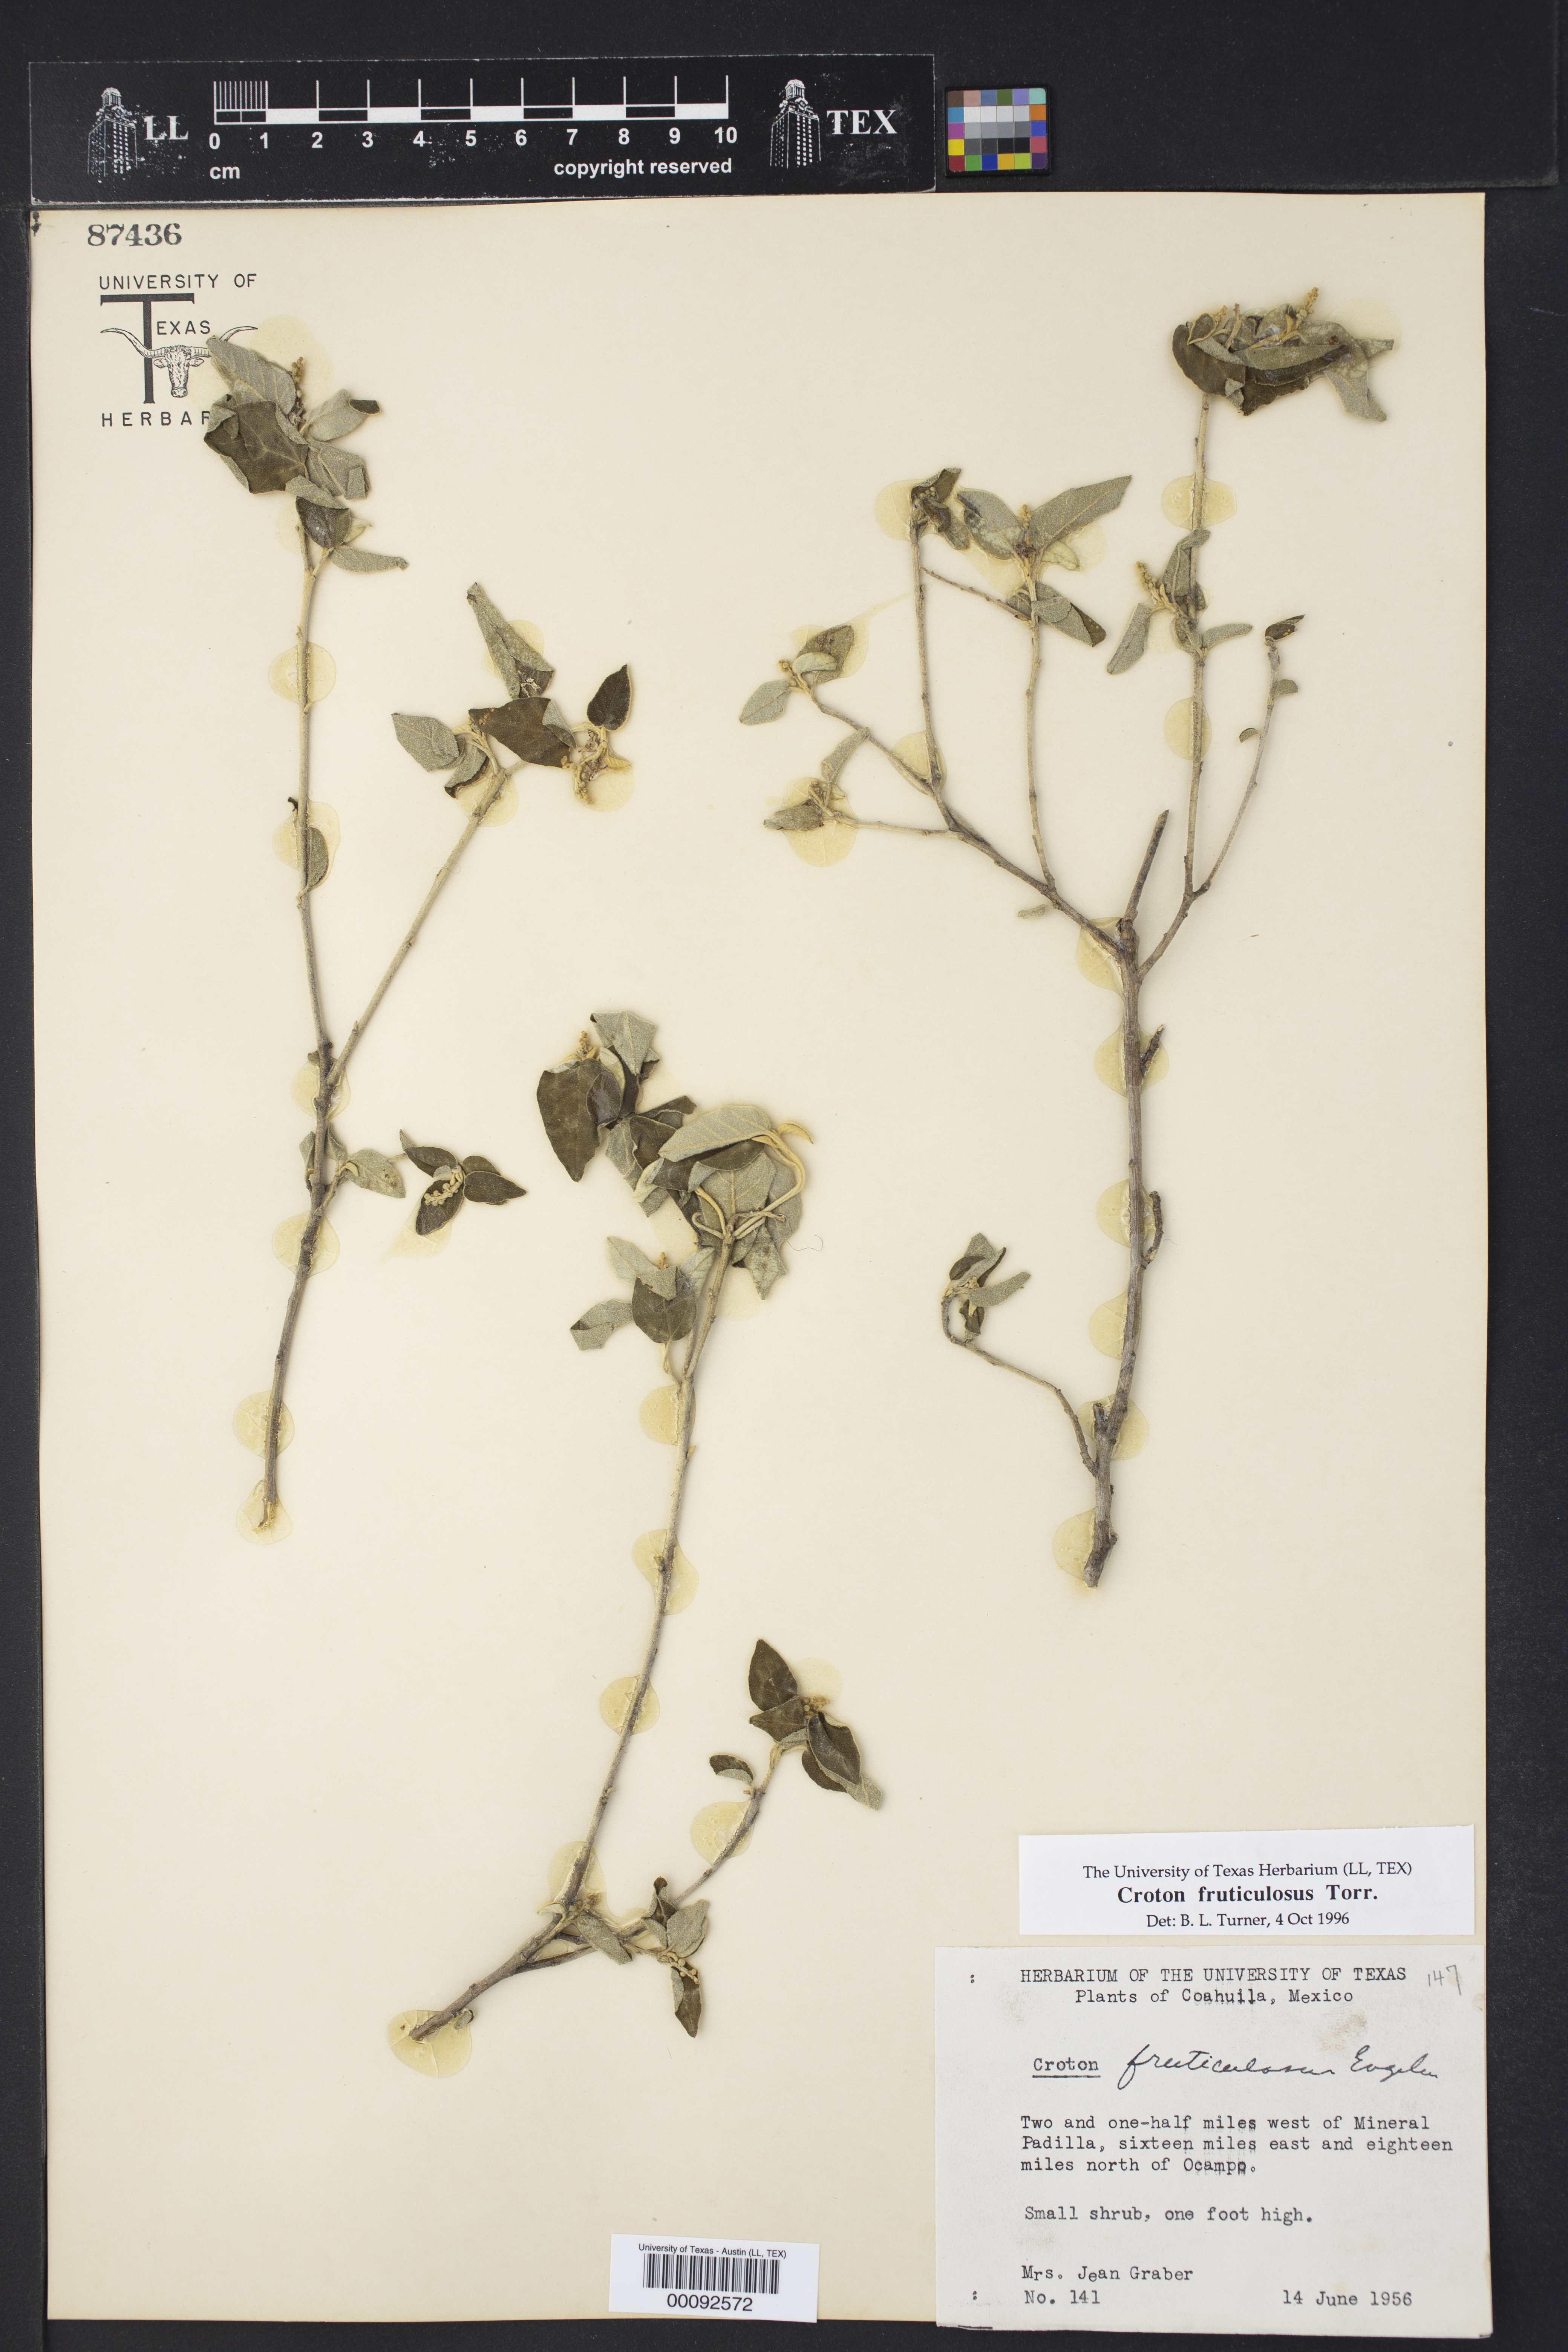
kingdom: Plantae
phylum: Tracheophyta
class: Magnoliopsida
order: Malpighiales
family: Euphorbiaceae
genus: Croton
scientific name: Croton fruticulosus
